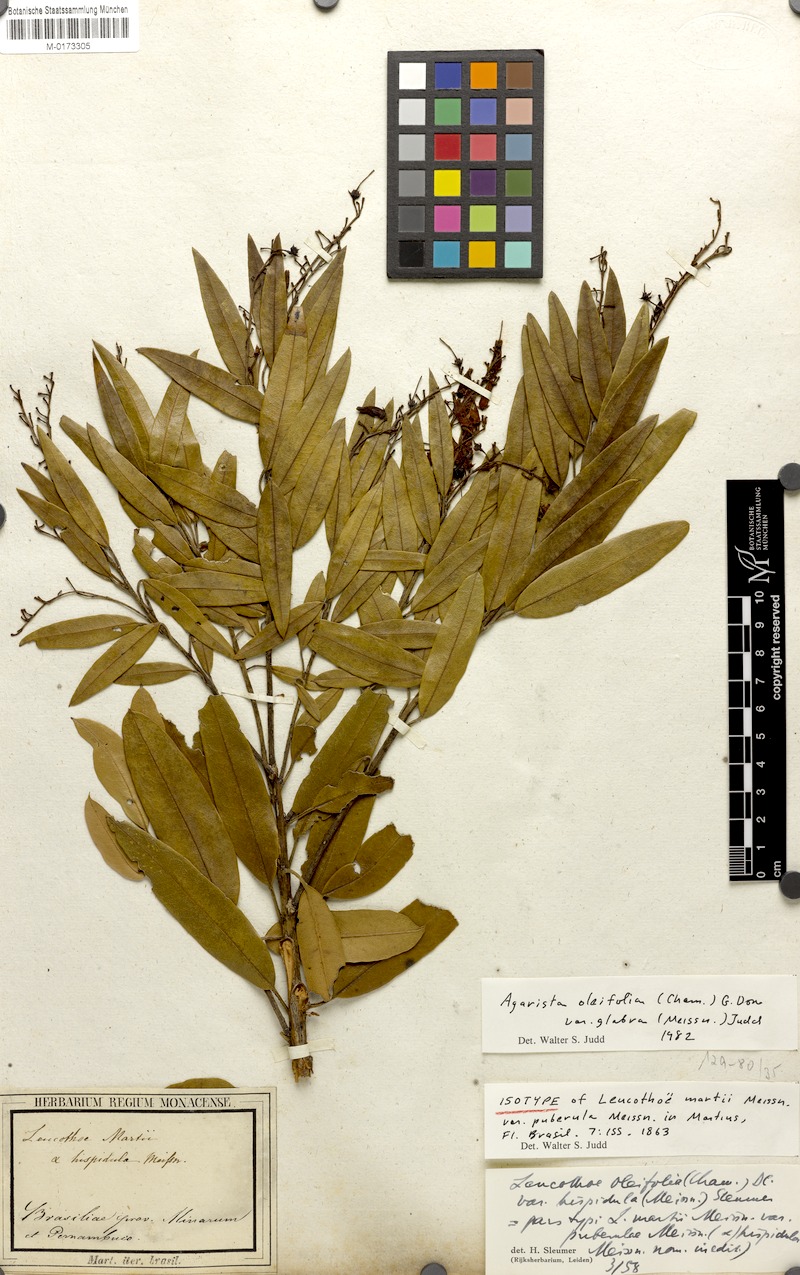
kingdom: Plantae
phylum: Tracheophyta
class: Magnoliopsida
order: Ericales
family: Ericaceae
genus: Agarista
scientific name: Agarista oleifolia
